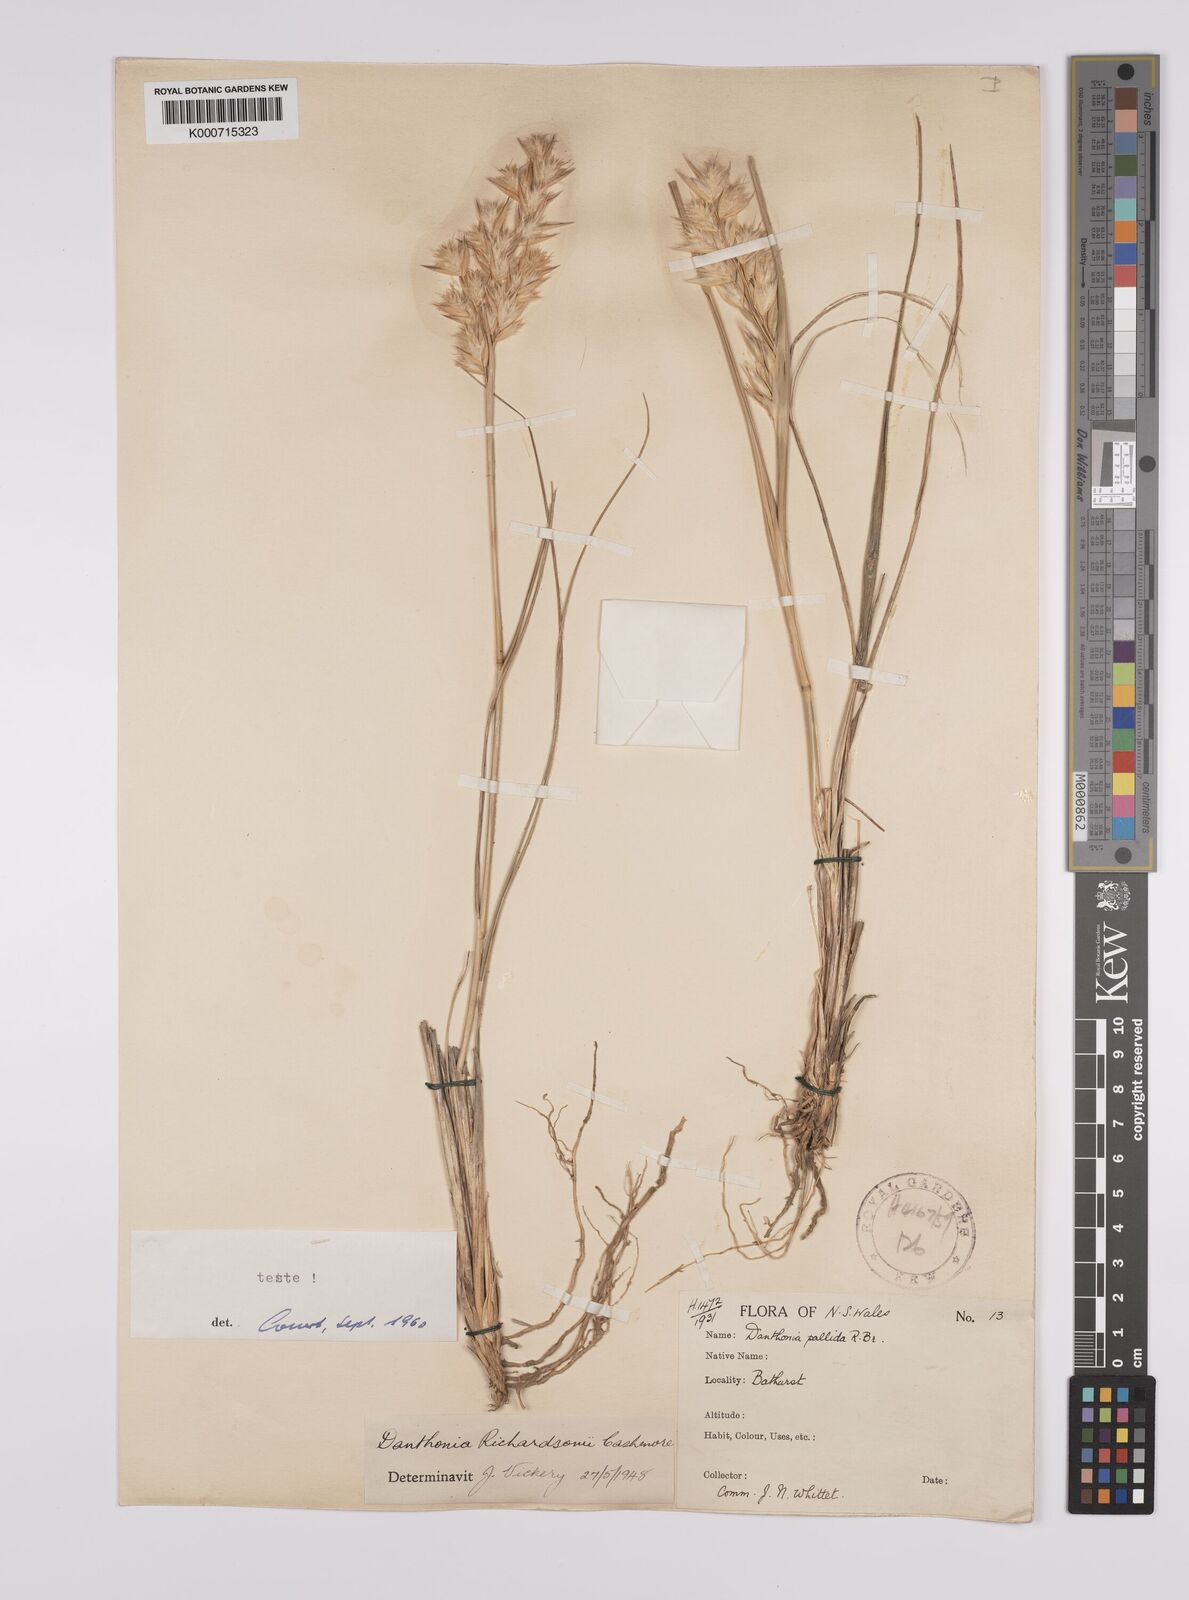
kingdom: Plantae
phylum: Tracheophyta
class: Liliopsida
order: Poales
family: Poaceae
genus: Rytidosperma
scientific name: Rytidosperma richardsonii
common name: Straw wallaby-grass
